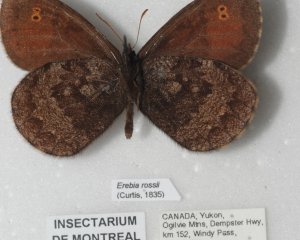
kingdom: Animalia
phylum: Arthropoda
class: Insecta
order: Lepidoptera
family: Nymphalidae
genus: Erebia
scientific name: Erebia rossii
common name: Ross's Alpine
